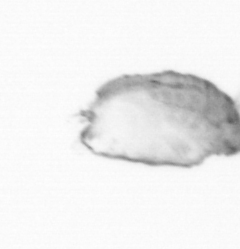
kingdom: Chromista
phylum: Ochrophyta
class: Bacillariophyceae
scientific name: Bacillariophyceae
